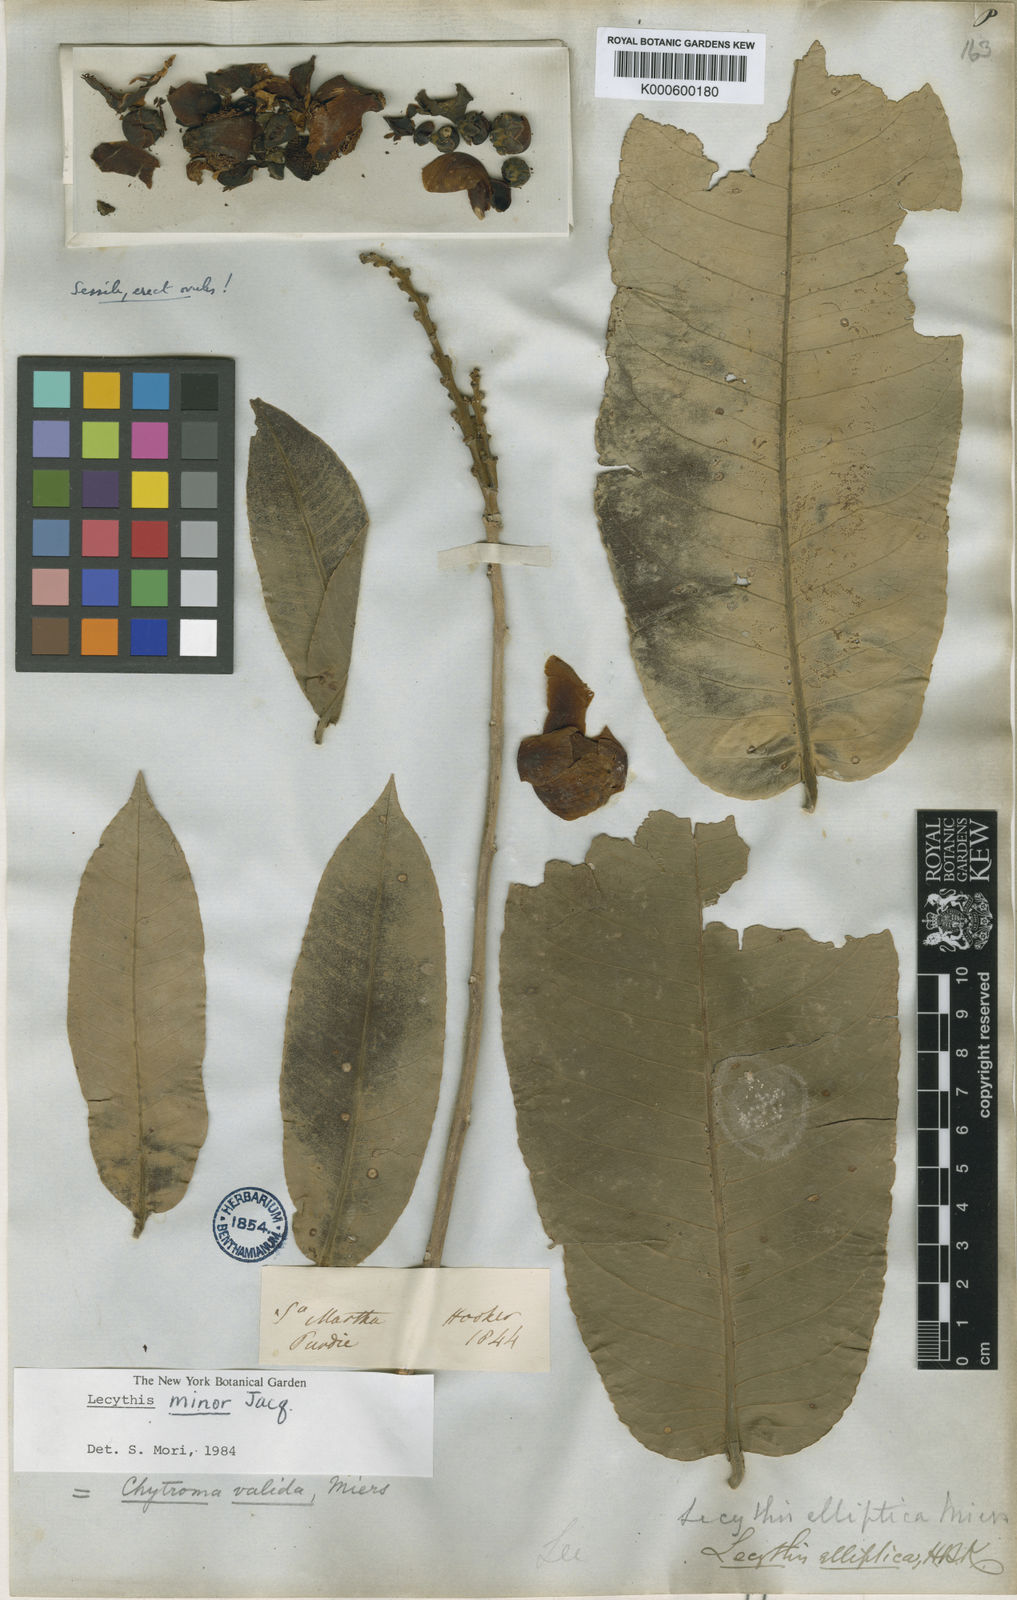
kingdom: Plantae
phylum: Tracheophyta
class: Magnoliopsida
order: Ericales
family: Lecythidaceae
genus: Lecythis
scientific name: Lecythis minor
